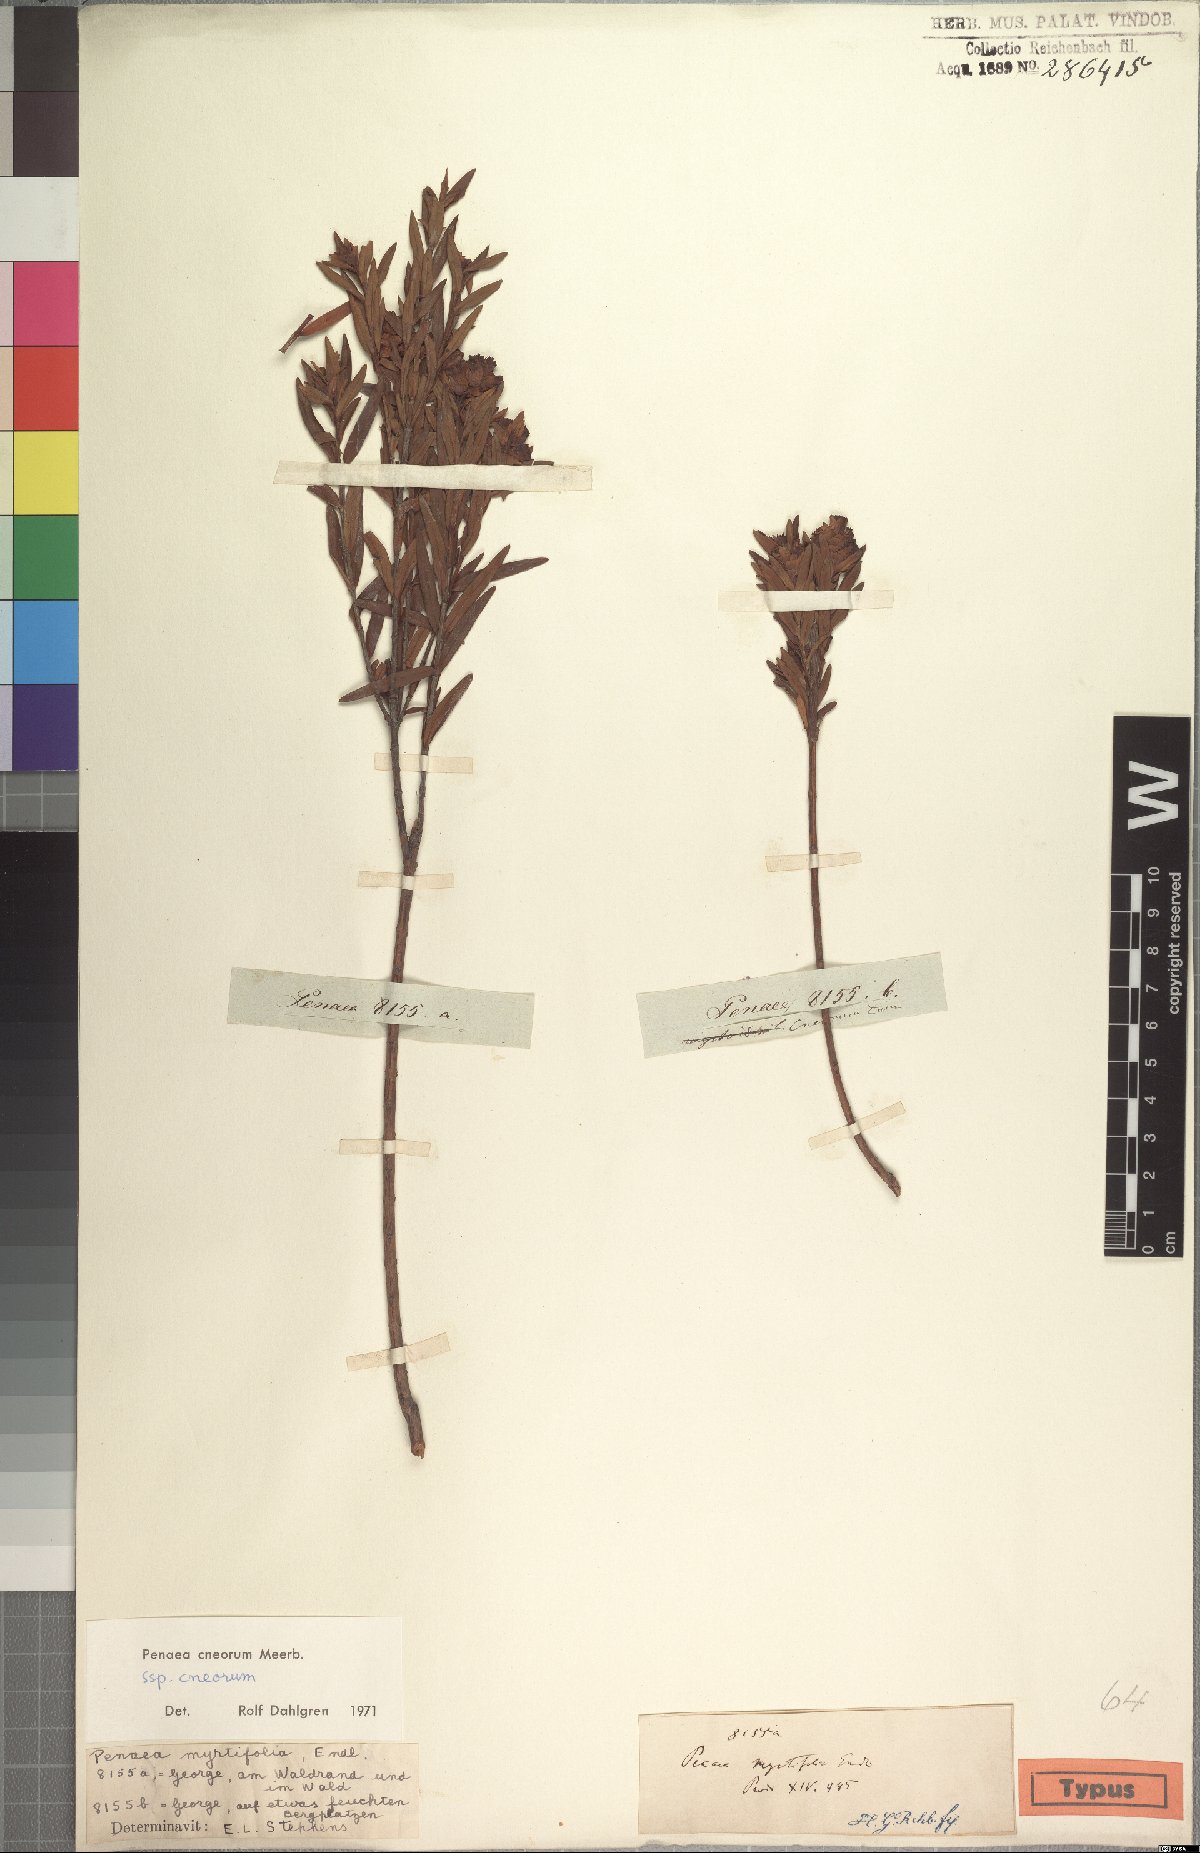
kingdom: Plantae
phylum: Tracheophyta
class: Magnoliopsida
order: Myrtales
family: Penaeaceae
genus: Penaea
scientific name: Penaea cneorum
